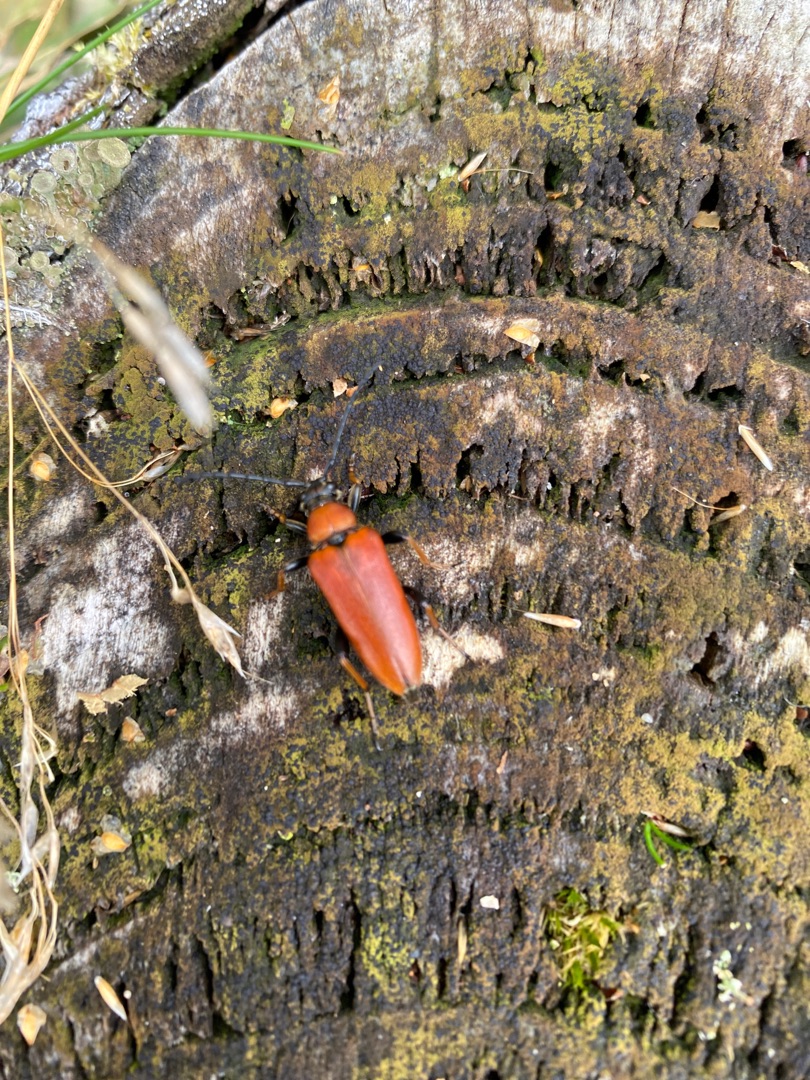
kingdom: Animalia
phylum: Arthropoda
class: Insecta
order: Coleoptera
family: Cerambycidae
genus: Stictoleptura
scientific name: Stictoleptura rubra
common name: Rød blomsterbuk
